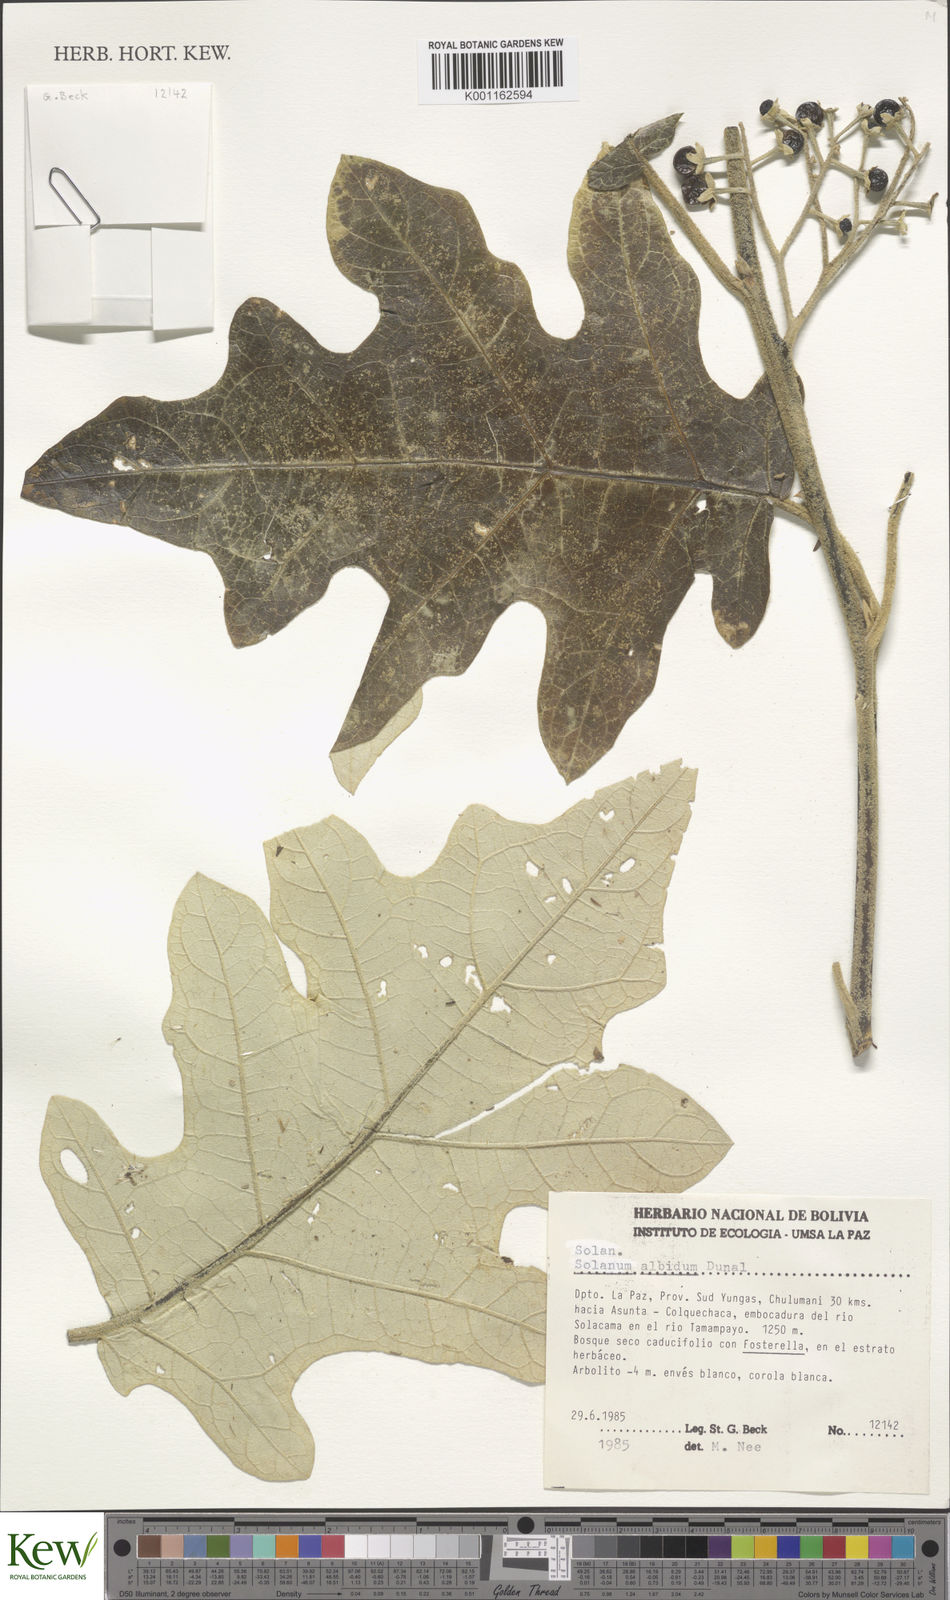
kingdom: Plantae
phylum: Tracheophyta
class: Magnoliopsida
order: Solanales
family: Solanaceae
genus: Solanum
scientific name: Solanum albidum
